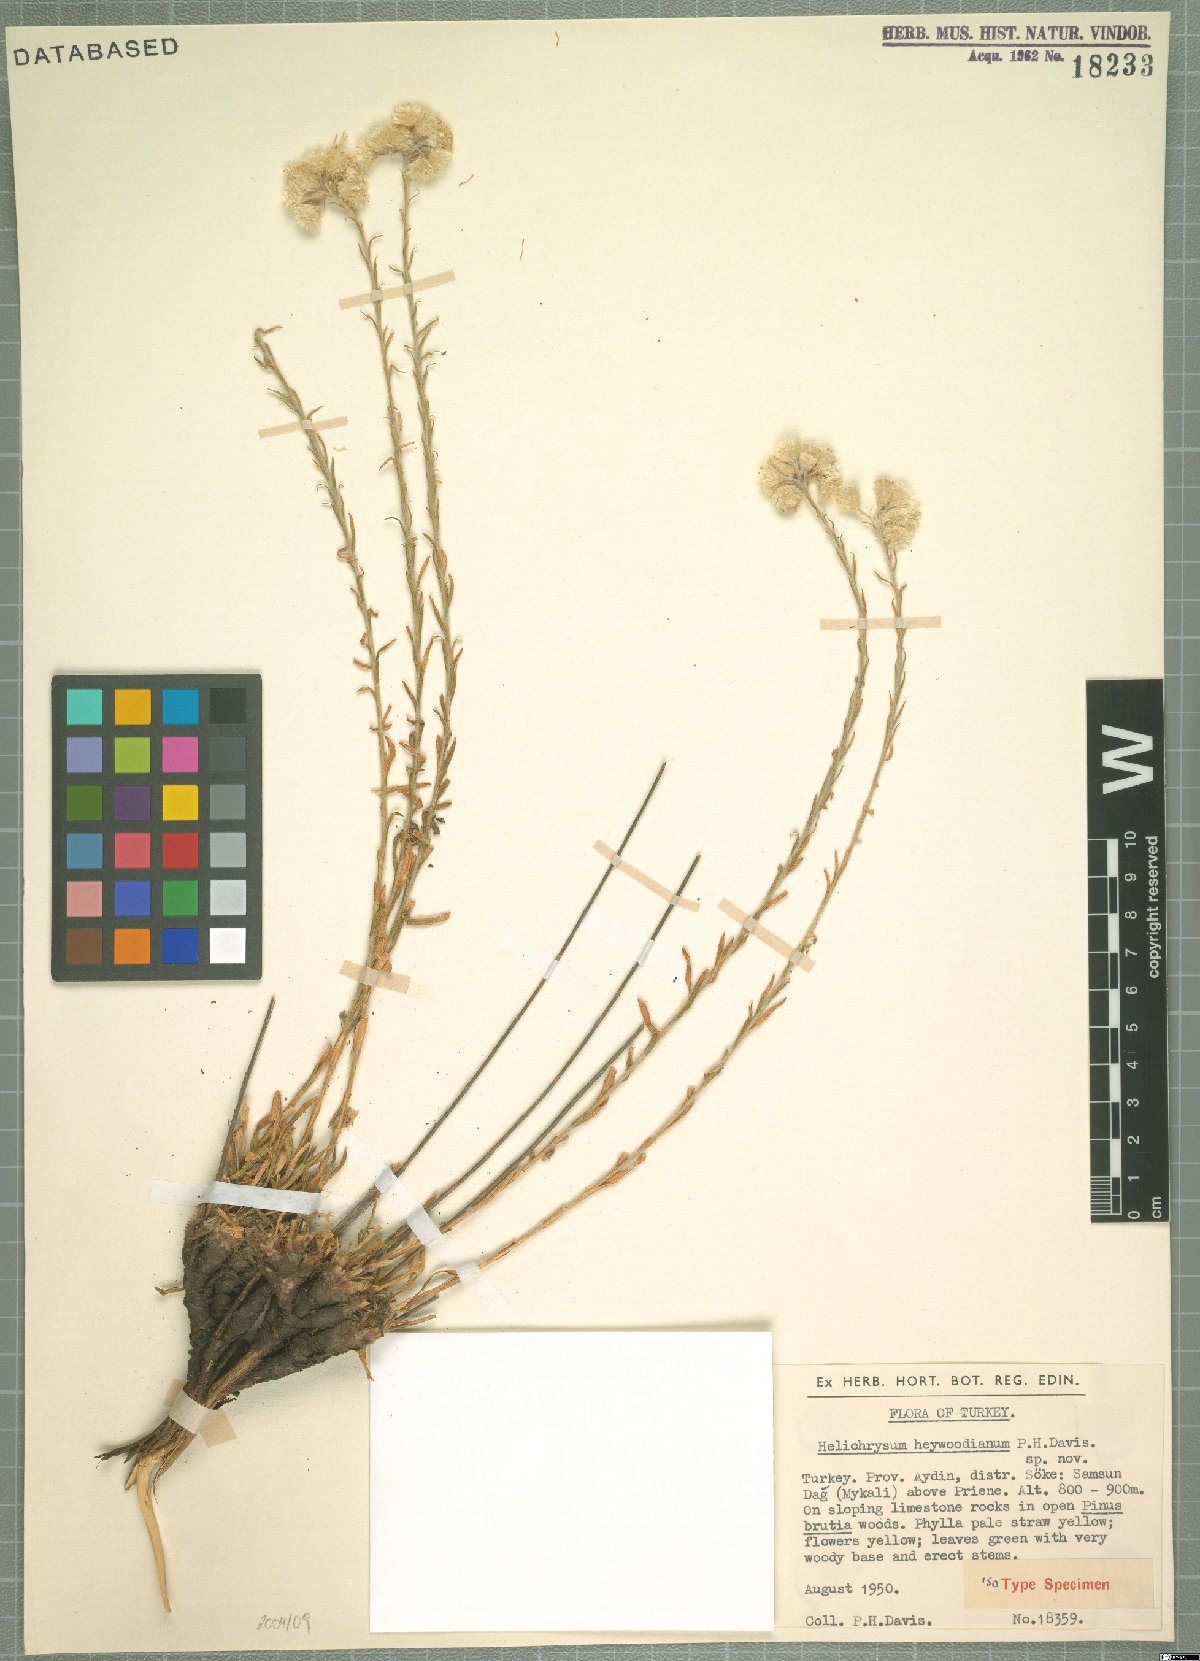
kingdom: Plantae
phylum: Tracheophyta
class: Magnoliopsida
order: Asterales
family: Asteraceae
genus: Helichrysum
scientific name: Helichrysum heywoodianum
